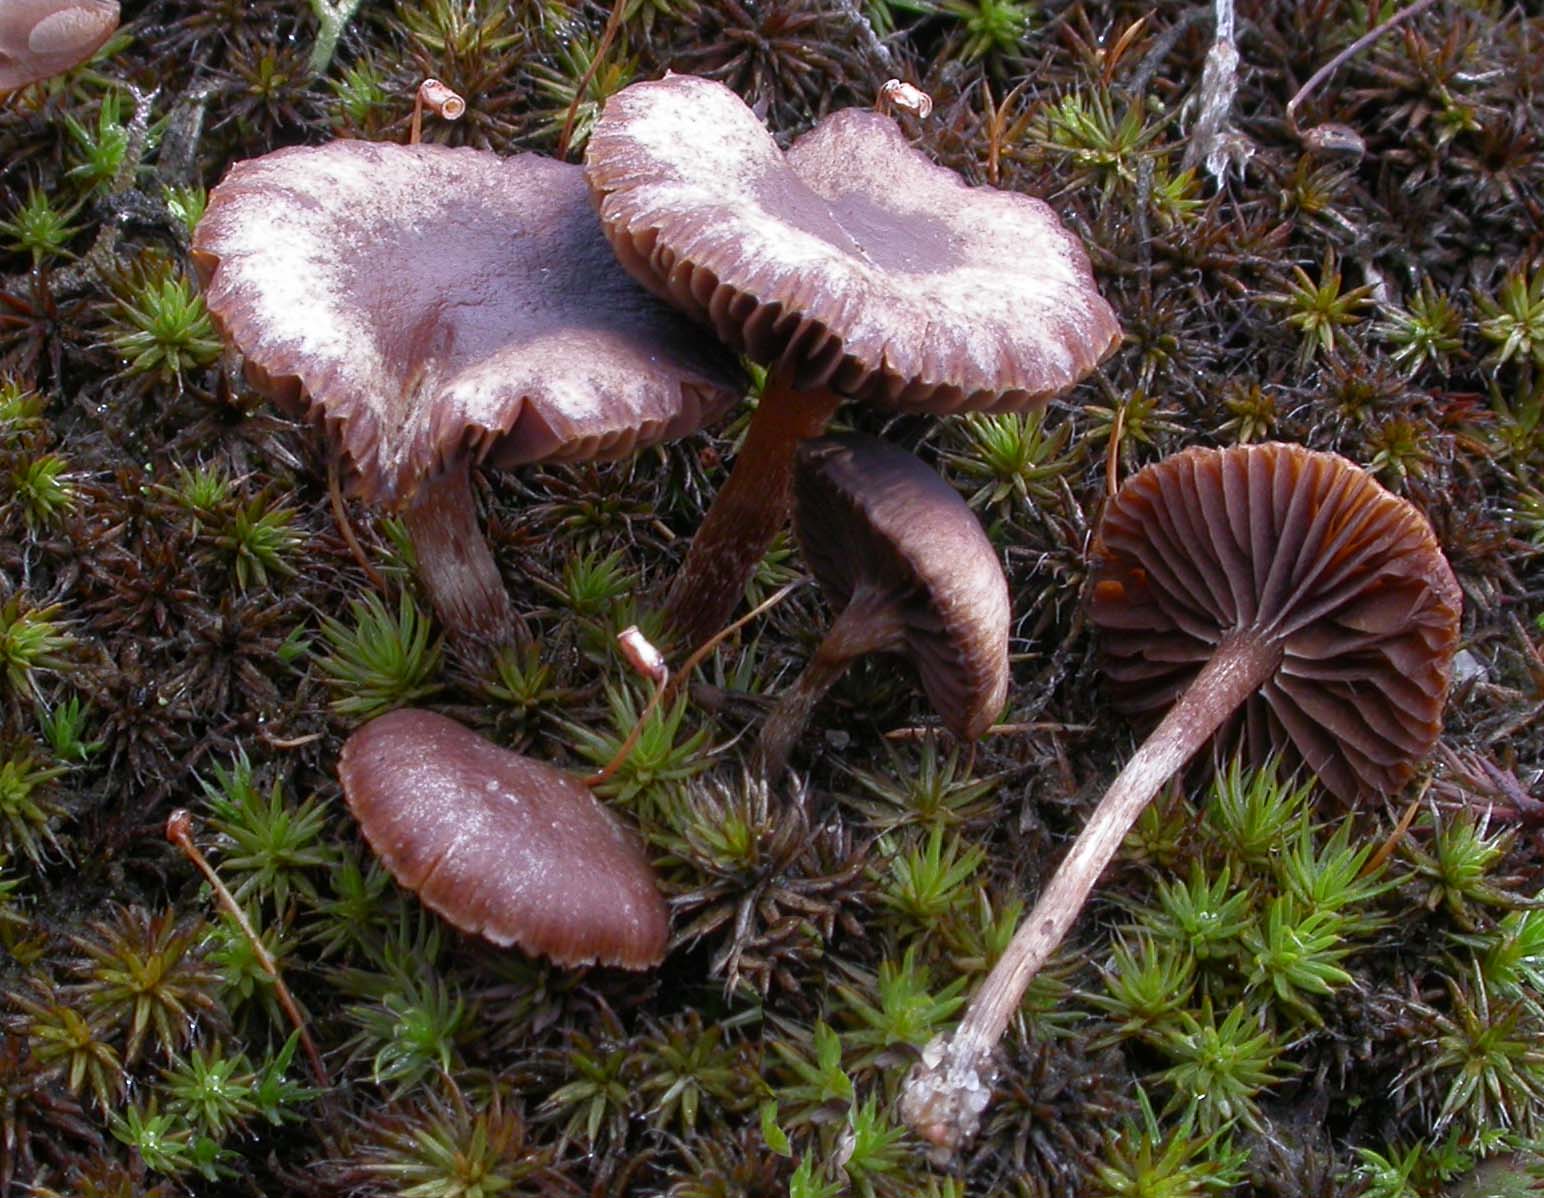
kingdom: Fungi
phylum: Basidiomycota
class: Agaricomycetes
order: Agaricales
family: Strophariaceae
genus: Deconica
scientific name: Deconica montana
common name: rødbrun stråhat
